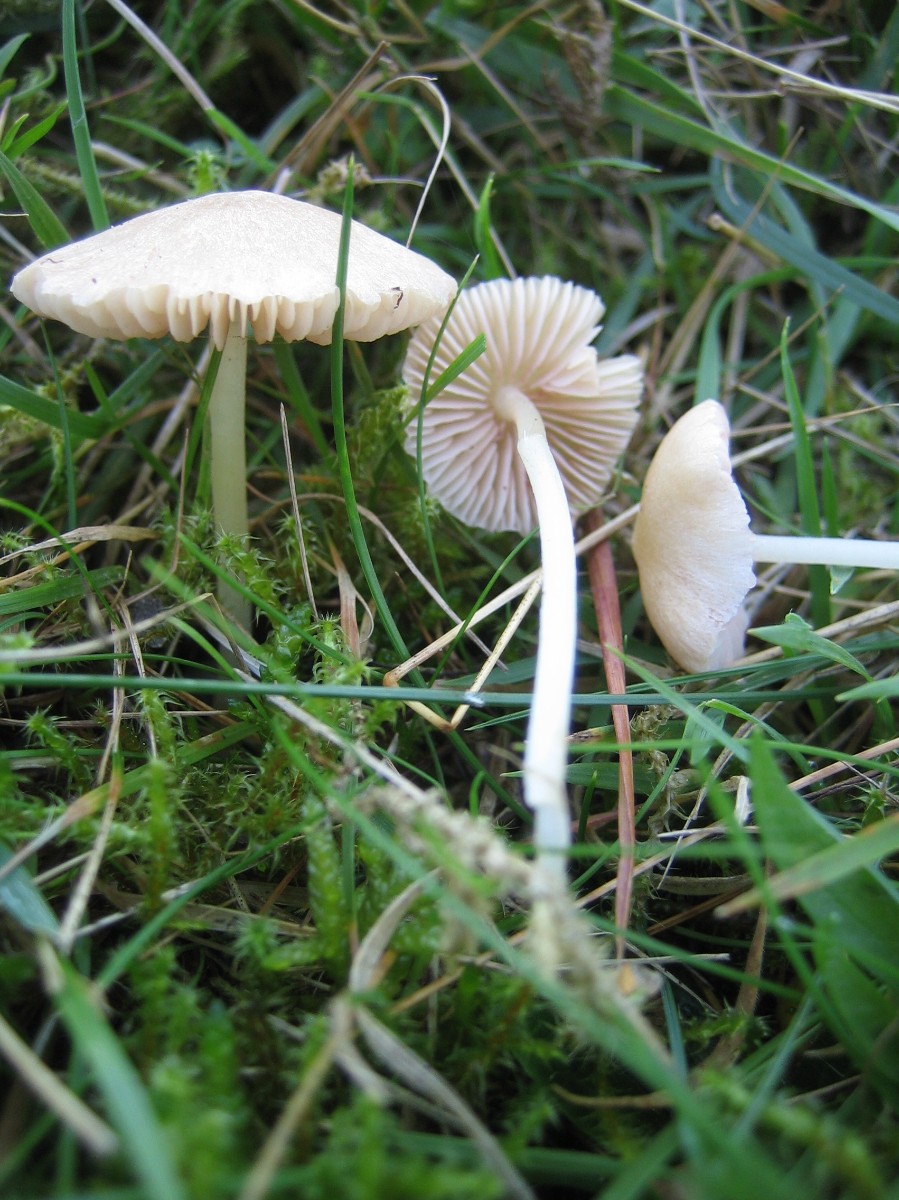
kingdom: Fungi
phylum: Basidiomycota
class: Agaricomycetes
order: Agaricales
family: Entolomataceae
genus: Entoloma
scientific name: Entoloma sericellum
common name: silkehvid rødblad
